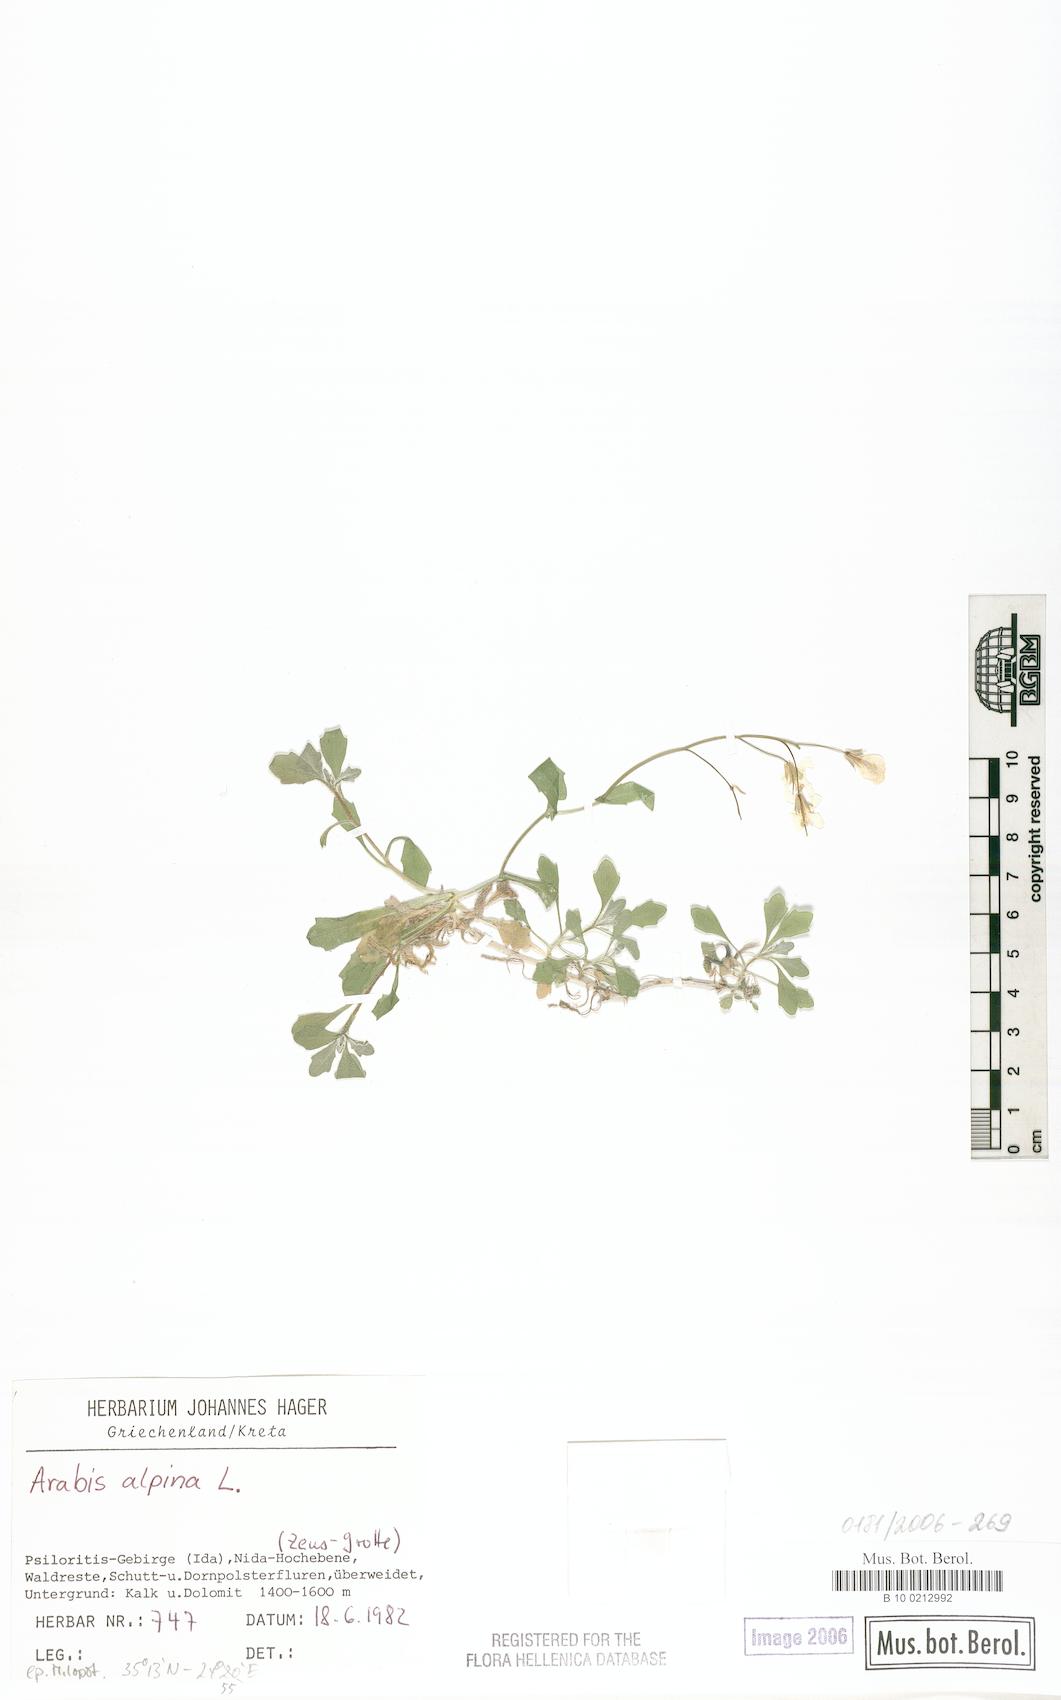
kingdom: Plantae
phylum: Tracheophyta
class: Magnoliopsida
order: Brassicales
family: Brassicaceae
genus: Arabis
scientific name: Arabis alpina
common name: Alpine rock-cress
